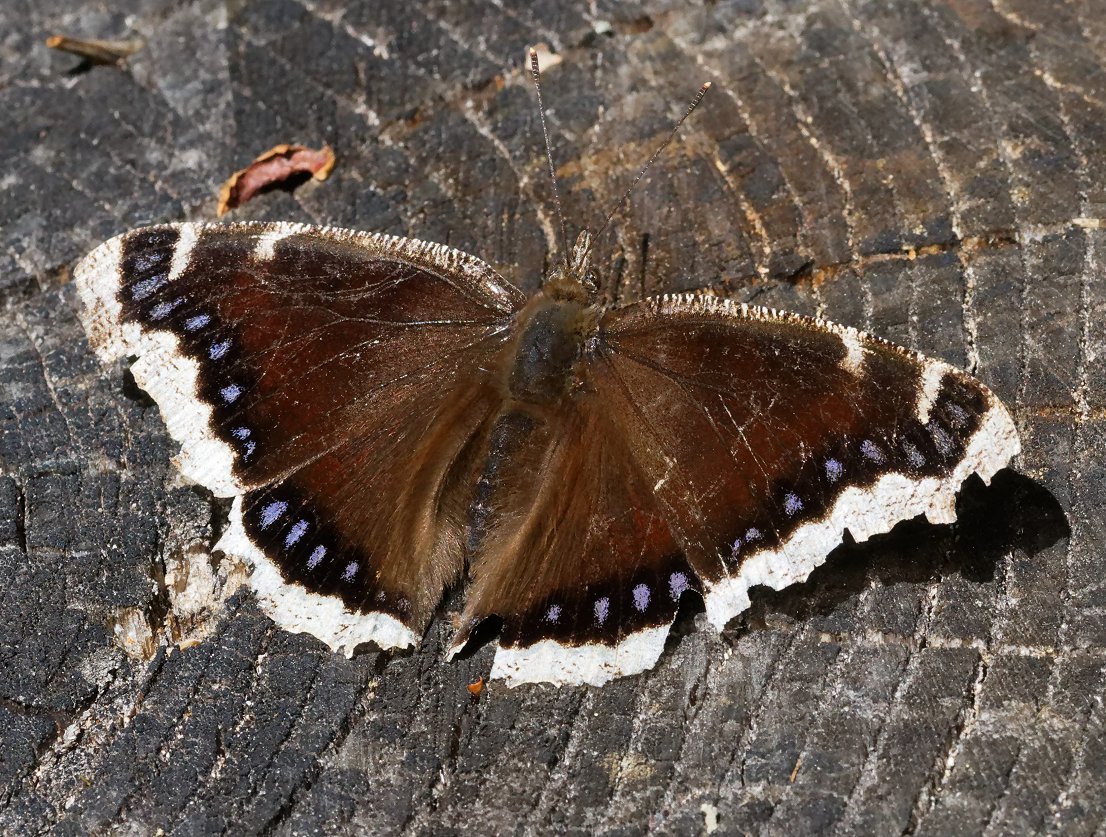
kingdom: Animalia
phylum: Arthropoda
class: Insecta
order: Lepidoptera
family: Nymphalidae
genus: Nymphalis
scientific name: Nymphalis antiopa
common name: Mourning Cloak
